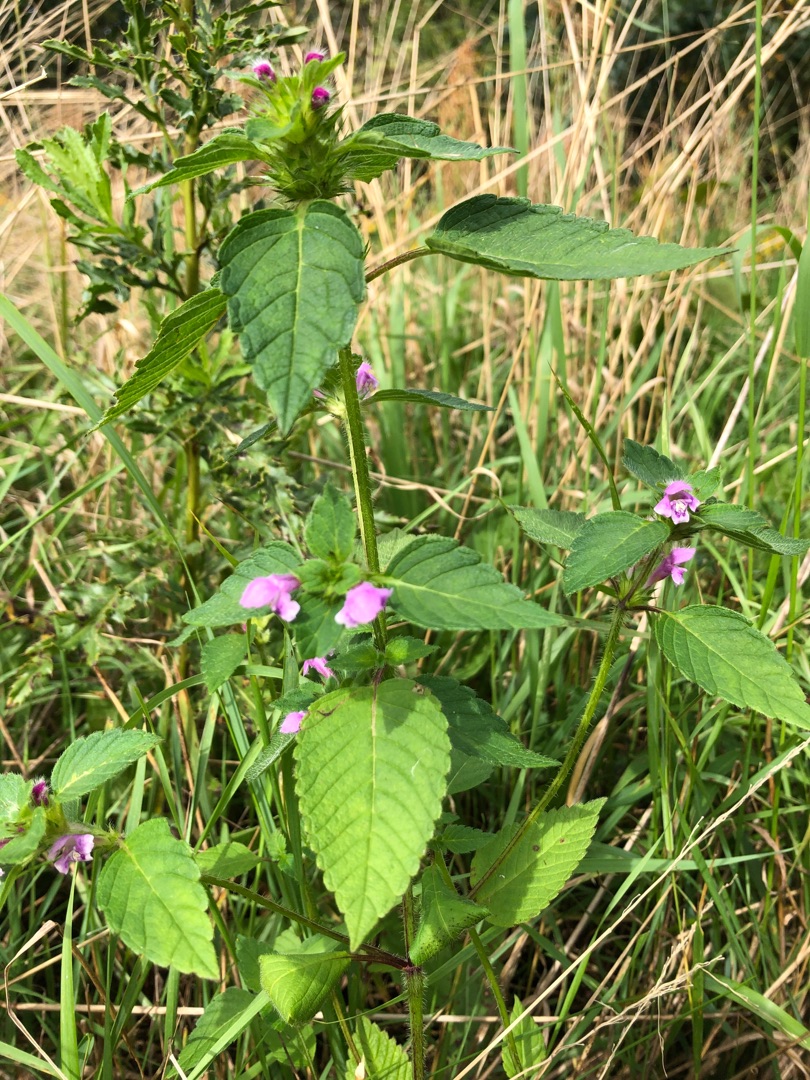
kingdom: Plantae
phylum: Tracheophyta
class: Magnoliopsida
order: Lamiales
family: Lamiaceae
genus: Galeopsis
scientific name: Galeopsis tetrahit
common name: Almindelig hanekro
